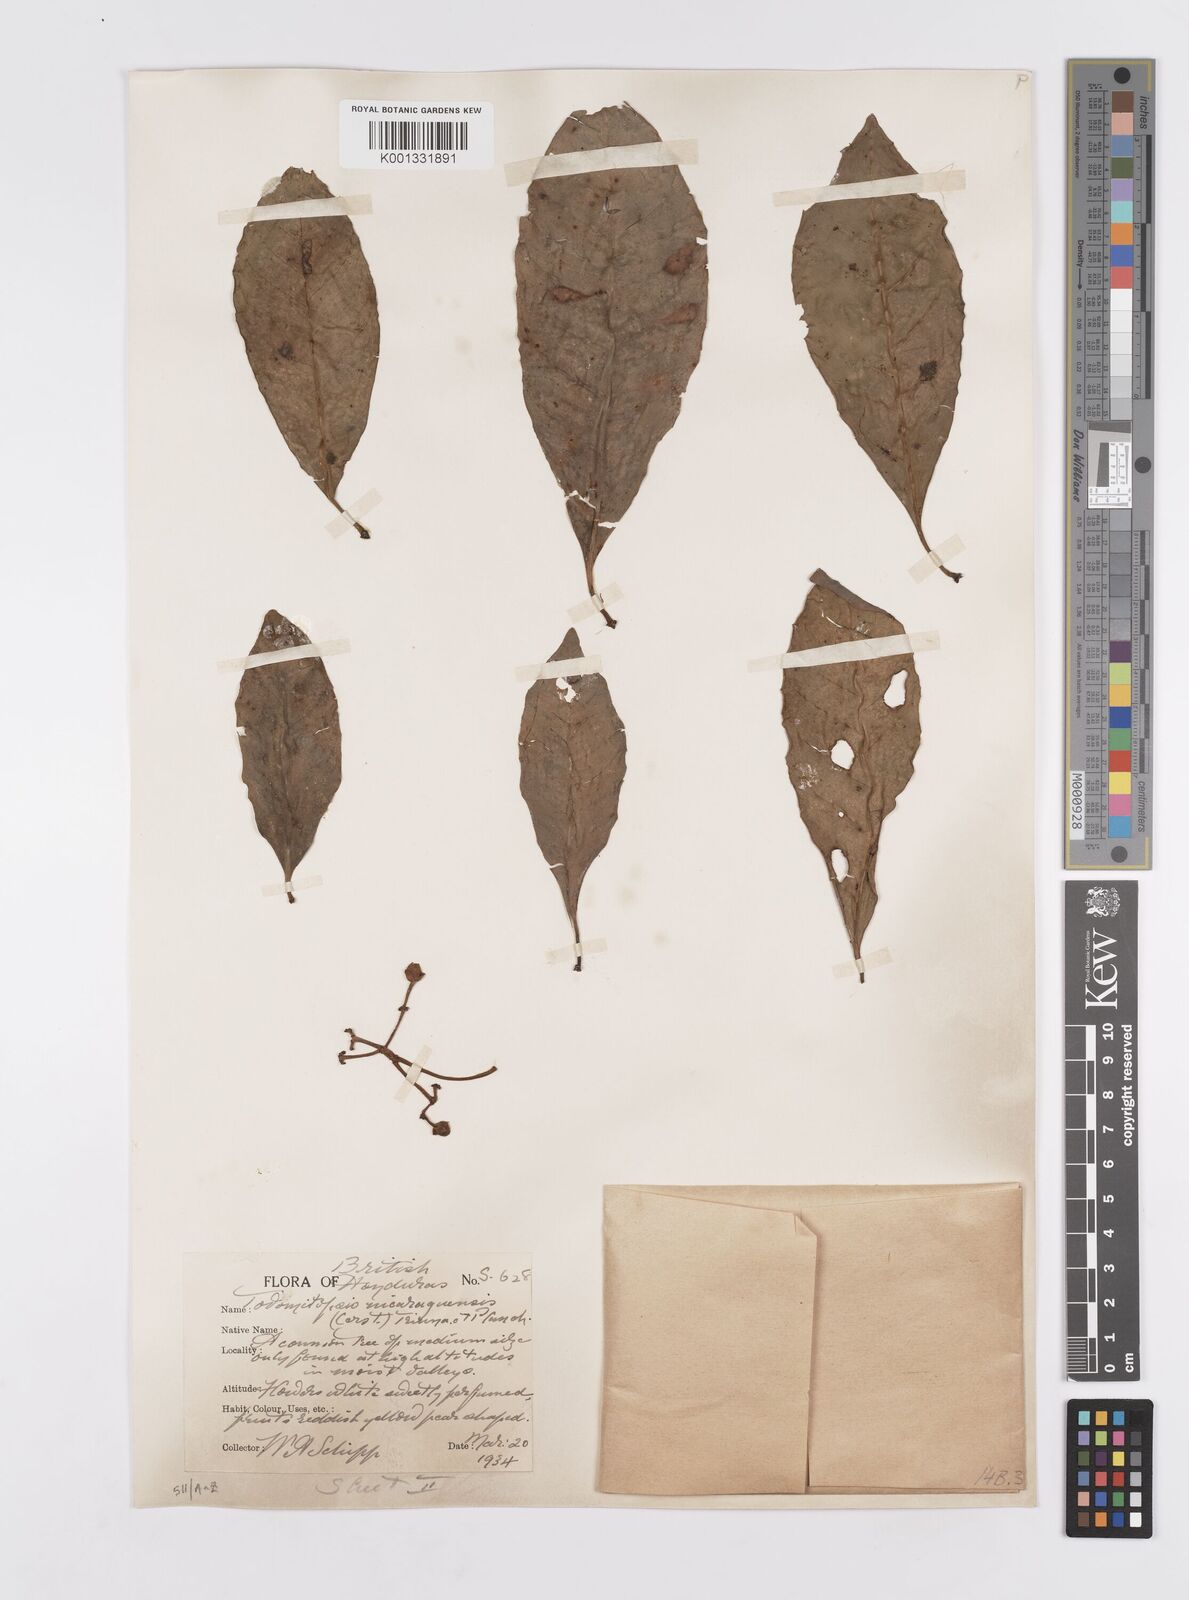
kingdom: Plantae
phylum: Tracheophyta
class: Magnoliopsida
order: Malpighiales
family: Clusiaceae
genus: Chrysochlamys
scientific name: Chrysochlamys nicaraguensis
